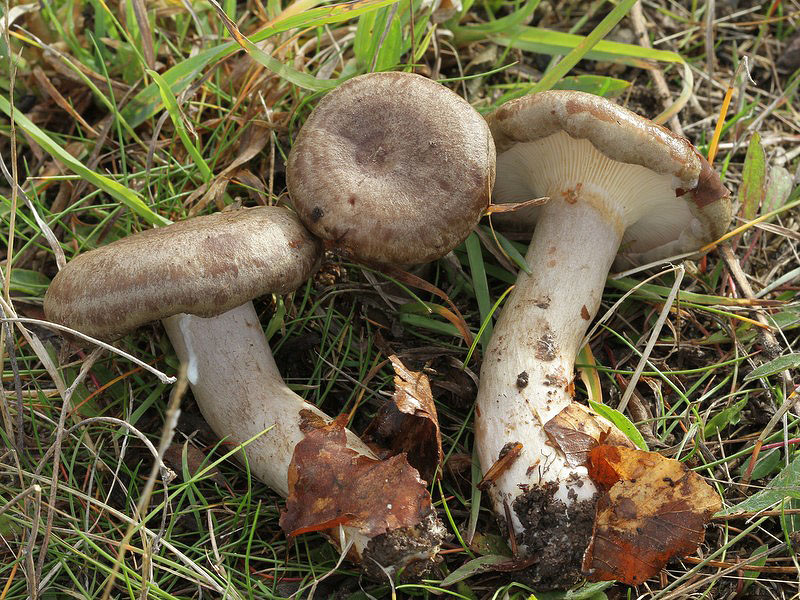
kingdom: Fungi
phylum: Basidiomycota
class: Agaricomycetes
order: Russulales
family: Russulaceae
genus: Lactarius
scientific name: Lactarius blennius
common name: dråbeplettet mælkehat
